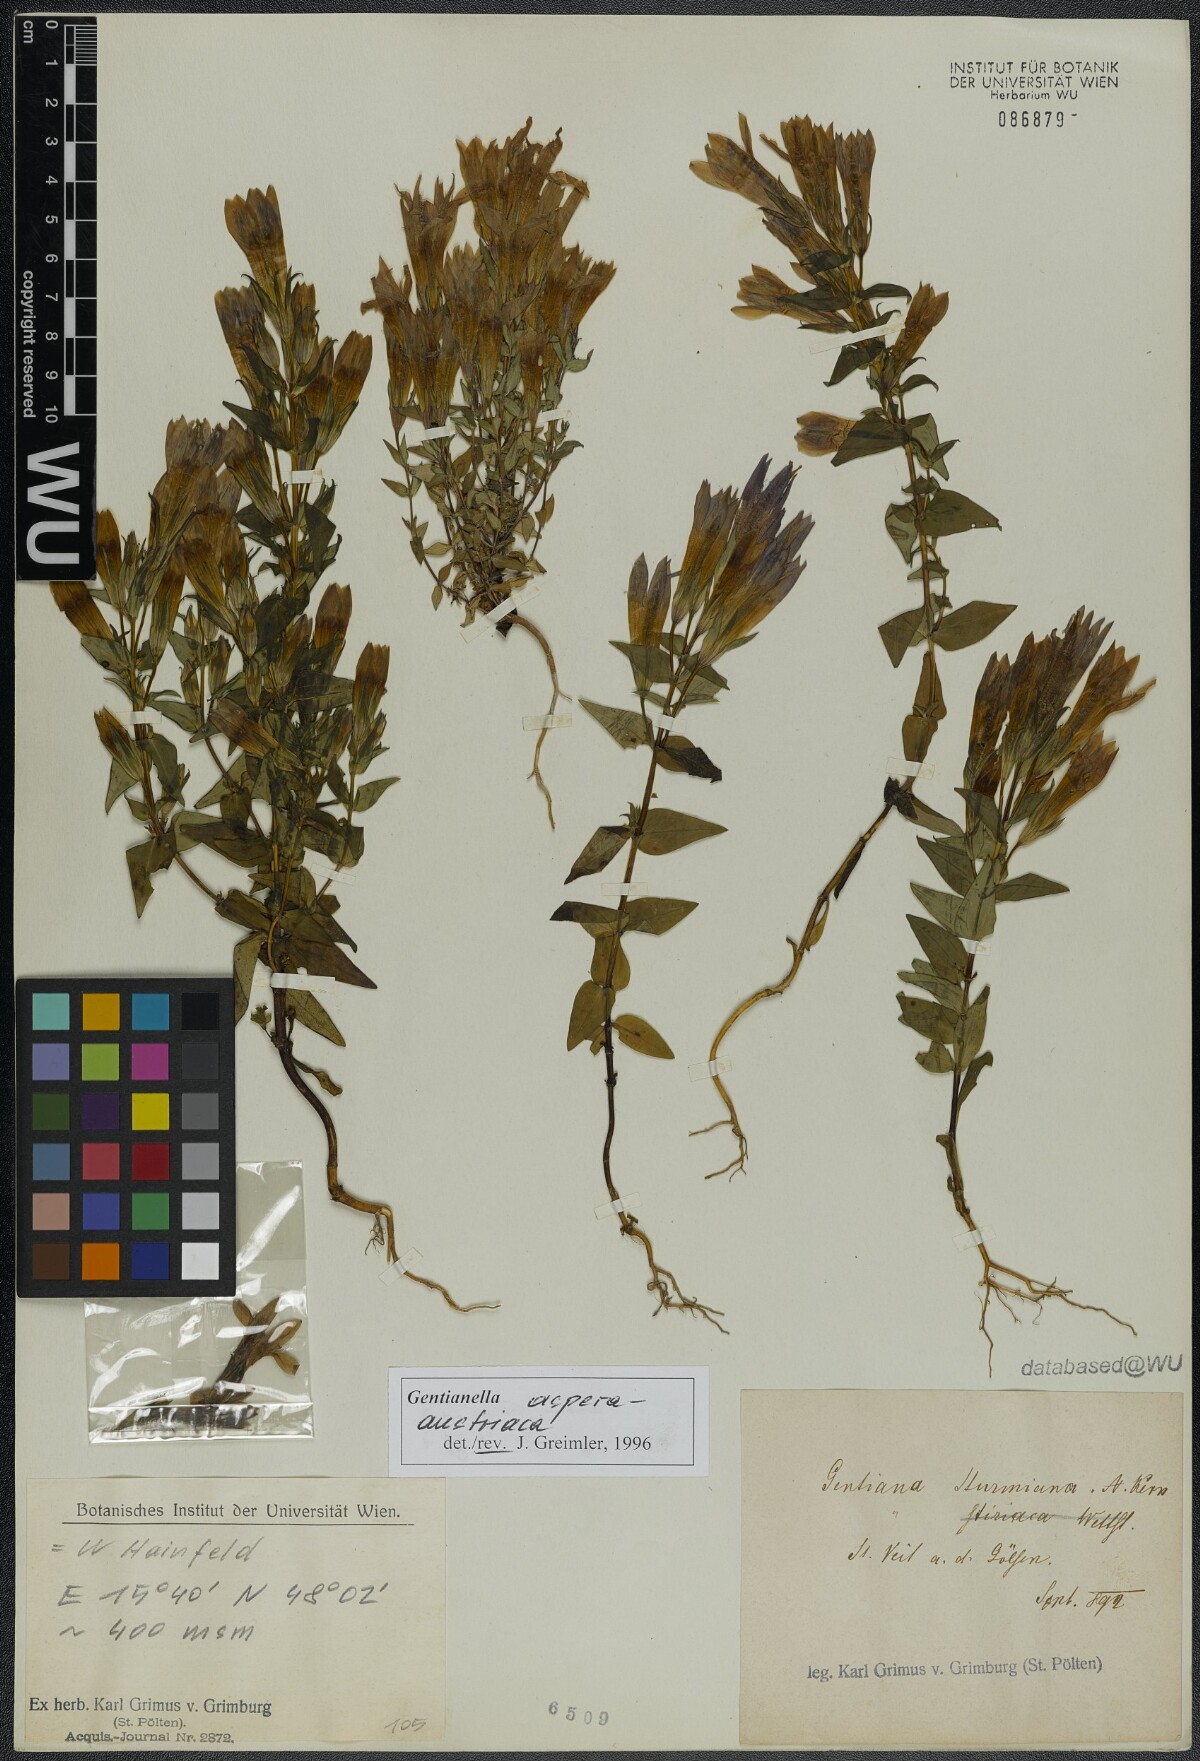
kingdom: Plantae
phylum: Tracheophyta
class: Magnoliopsida
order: Gentianales
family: Gentianaceae
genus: Gentianella
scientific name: Gentianella austriaca
